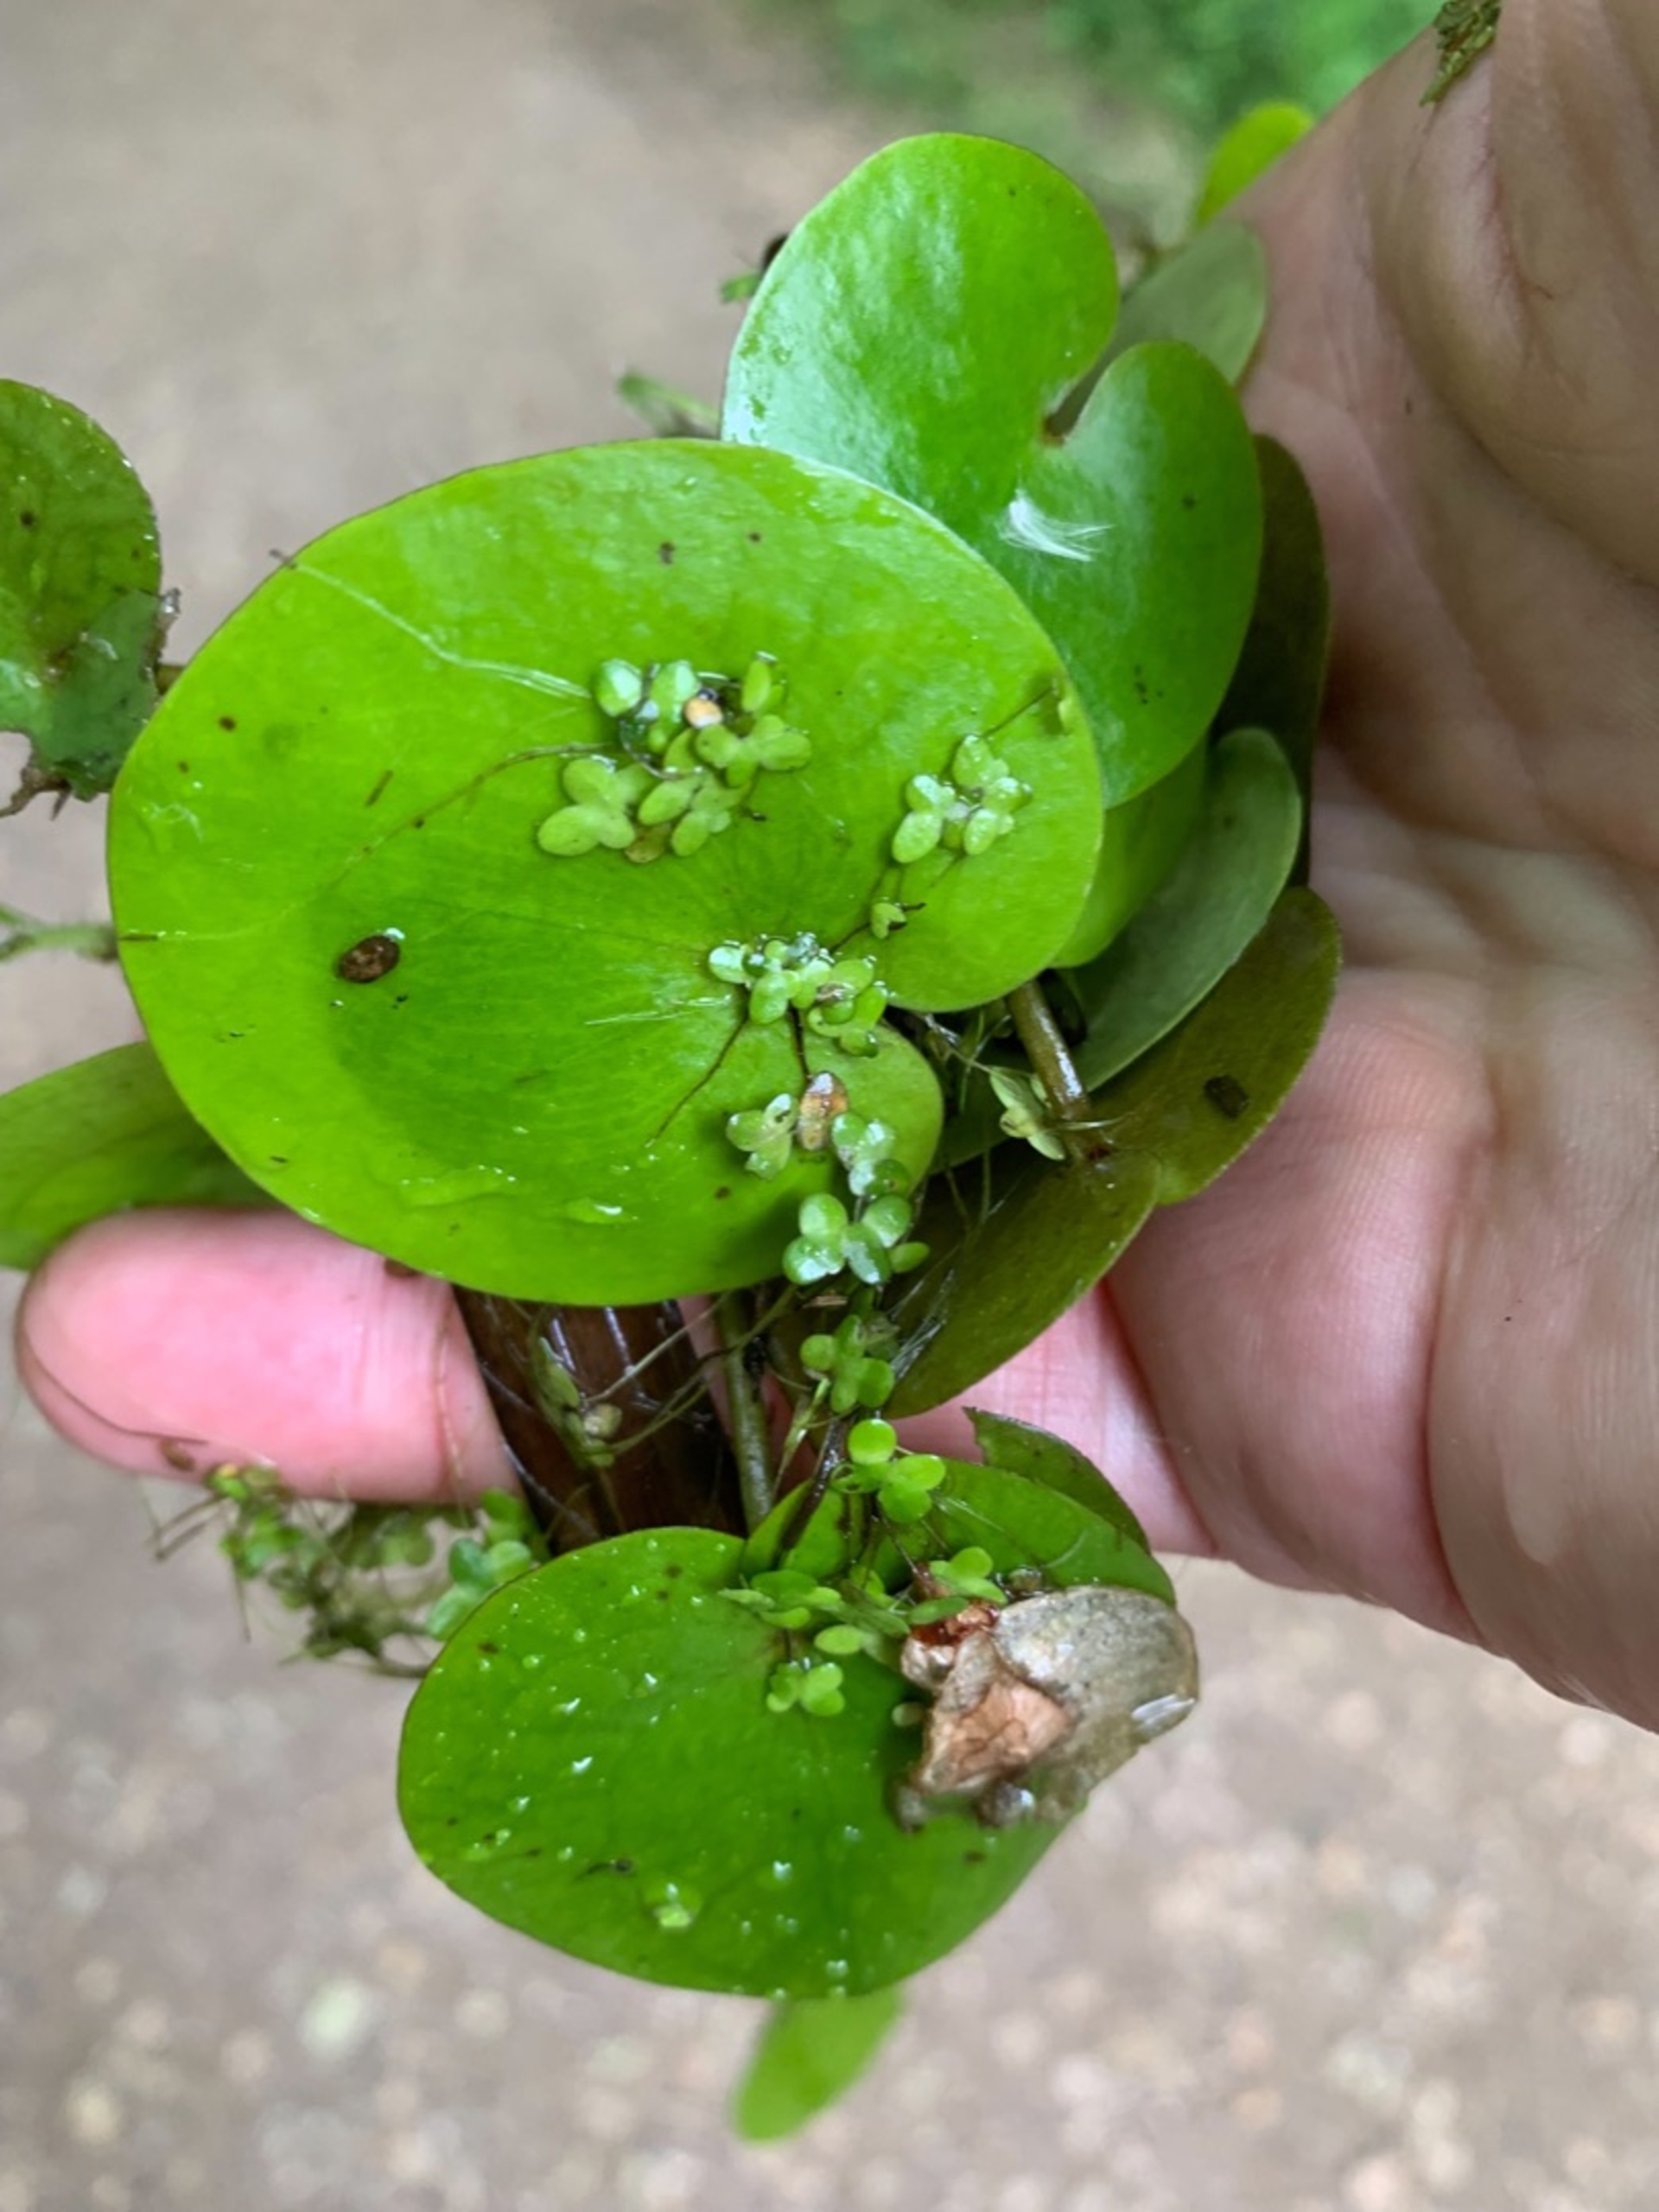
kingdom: Plantae
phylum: Tracheophyta
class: Liliopsida
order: Alismatales
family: Hydrocharitaceae
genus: Hydrocharis
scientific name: Hydrocharis morsus-ranae
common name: Frøbid
